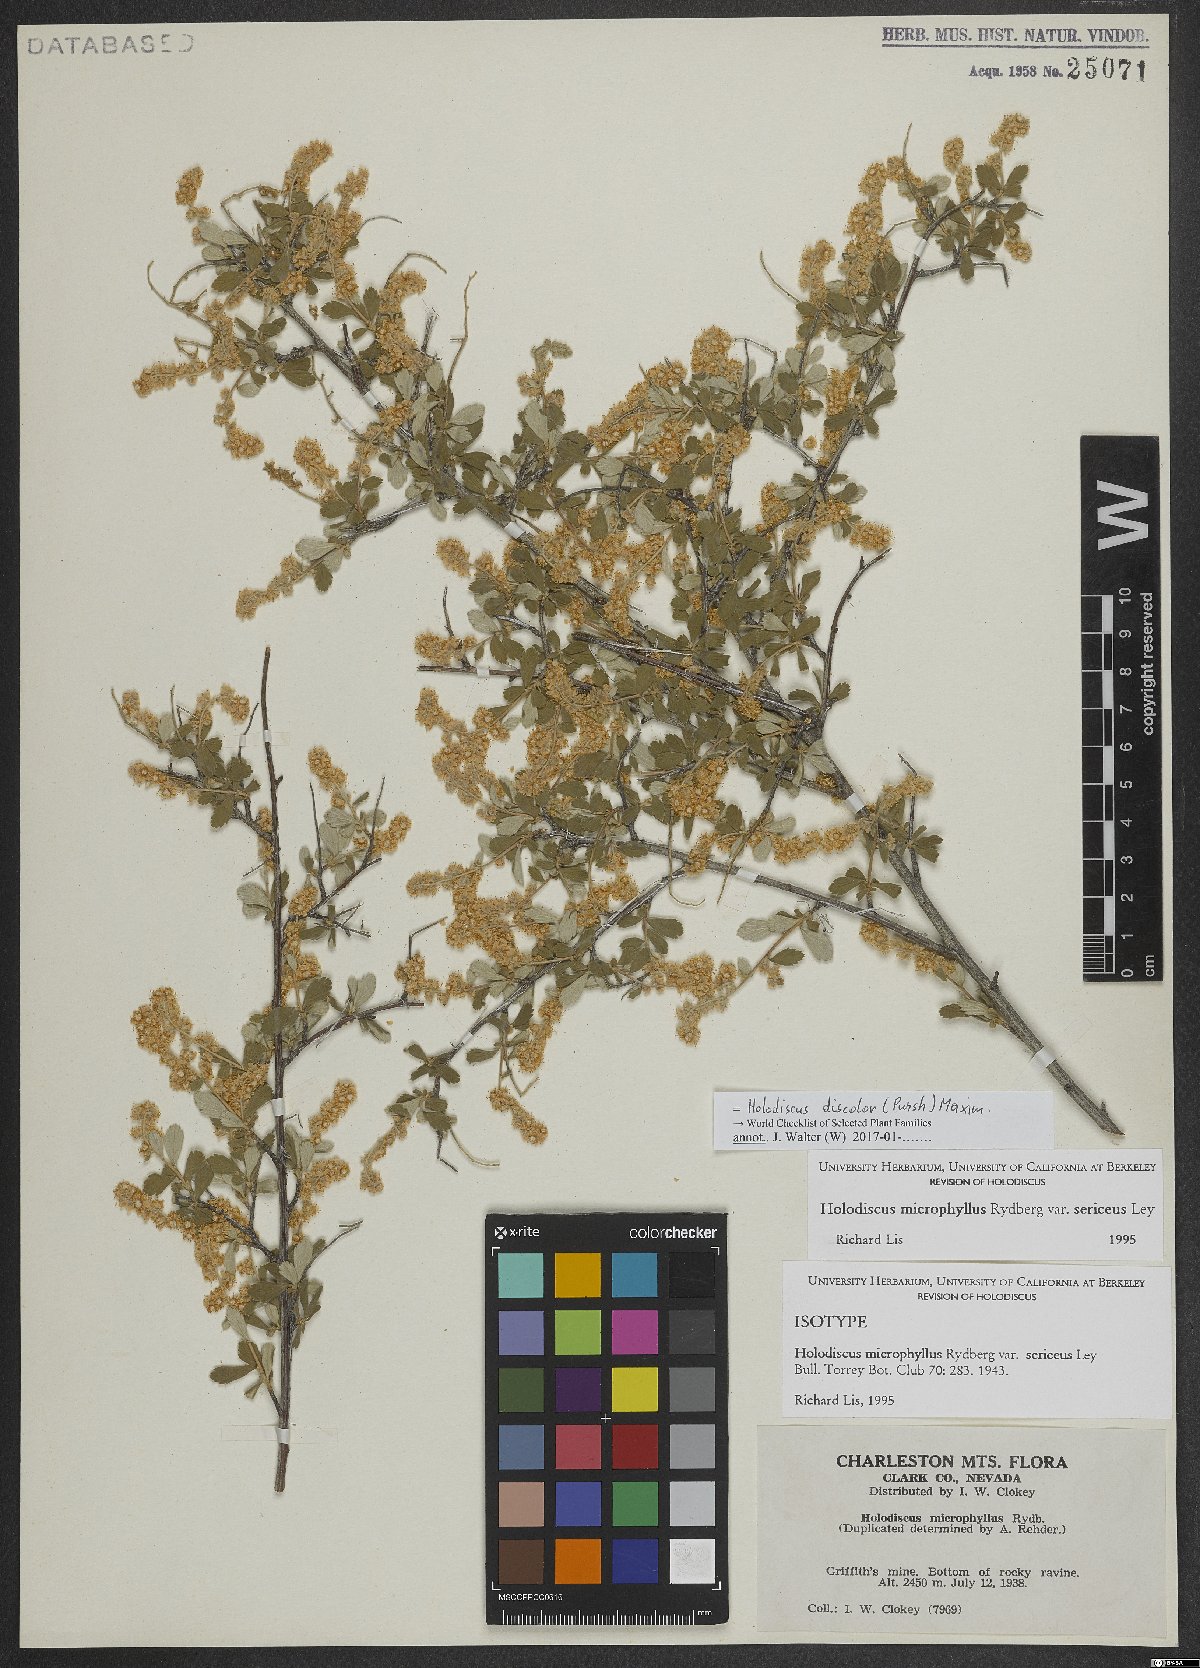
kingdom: Plantae
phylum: Tracheophyta
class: Magnoliopsida
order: Rosales
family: Rosaceae
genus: Holodiscus
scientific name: Holodiscus discolor
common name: Oceanspray
